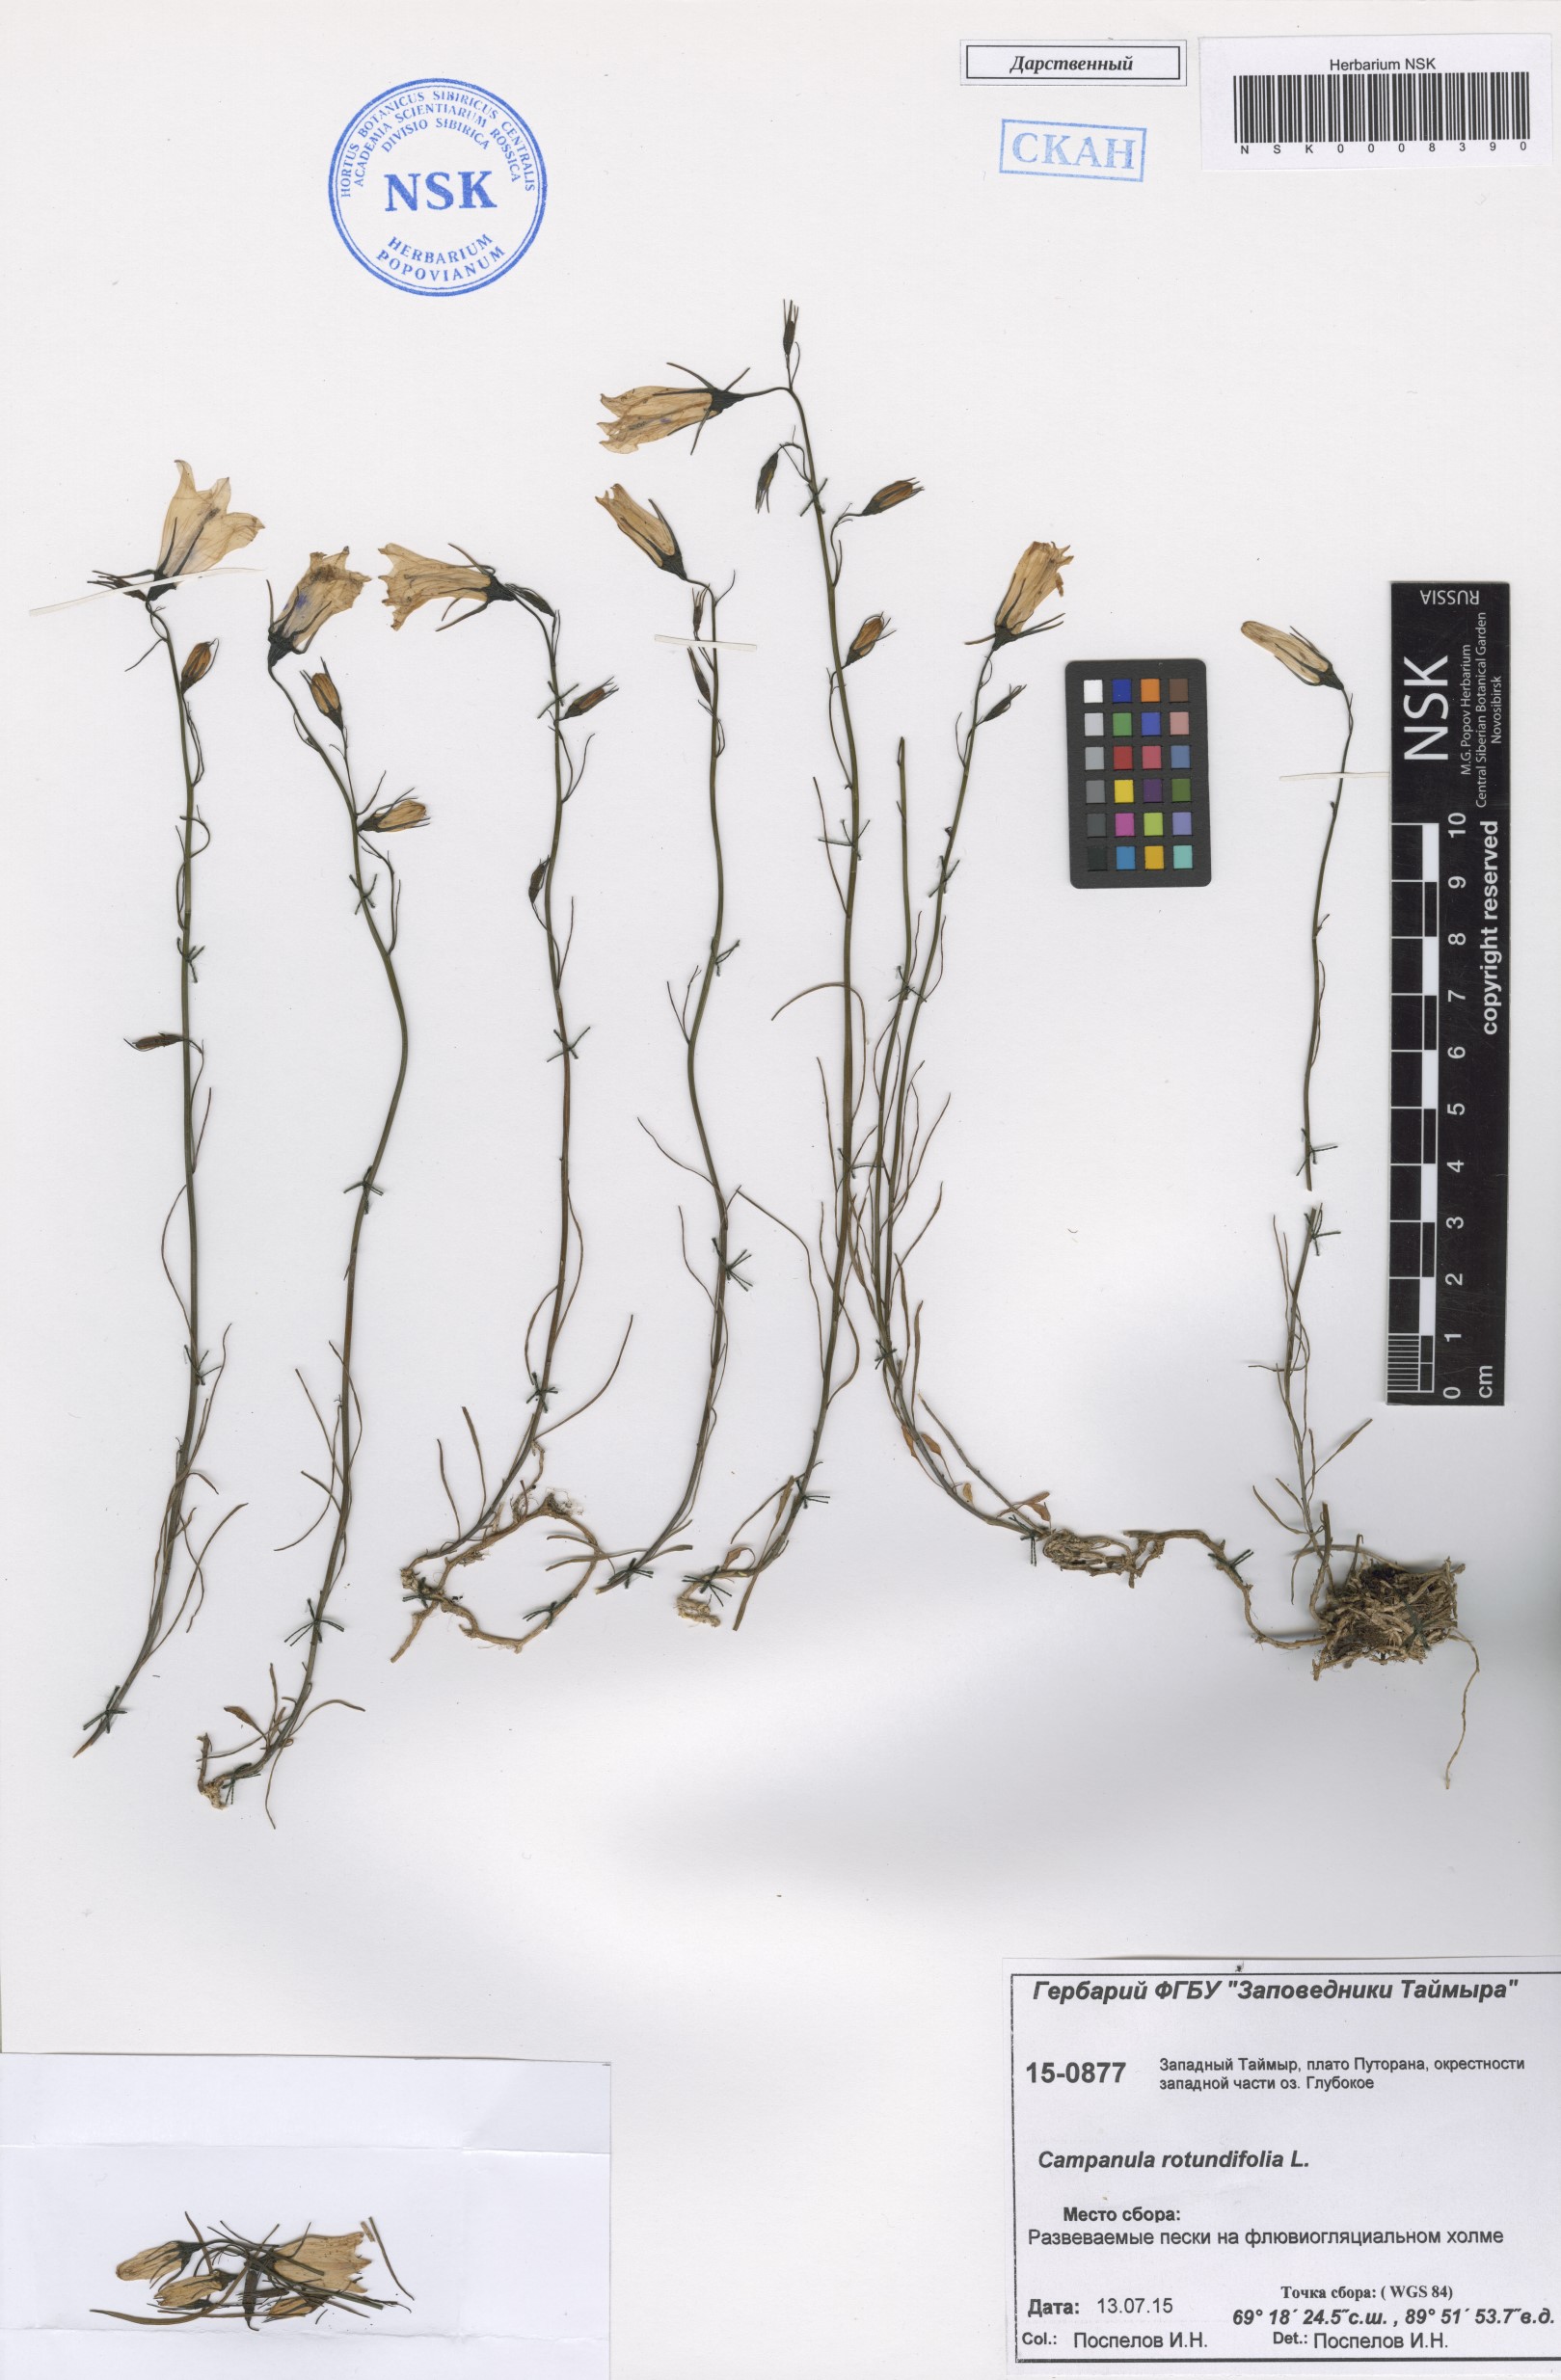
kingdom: Plantae
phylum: Tracheophyta
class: Magnoliopsida
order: Asterales
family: Campanulaceae
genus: Campanula
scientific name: Campanula rotundifolia
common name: Harebell
